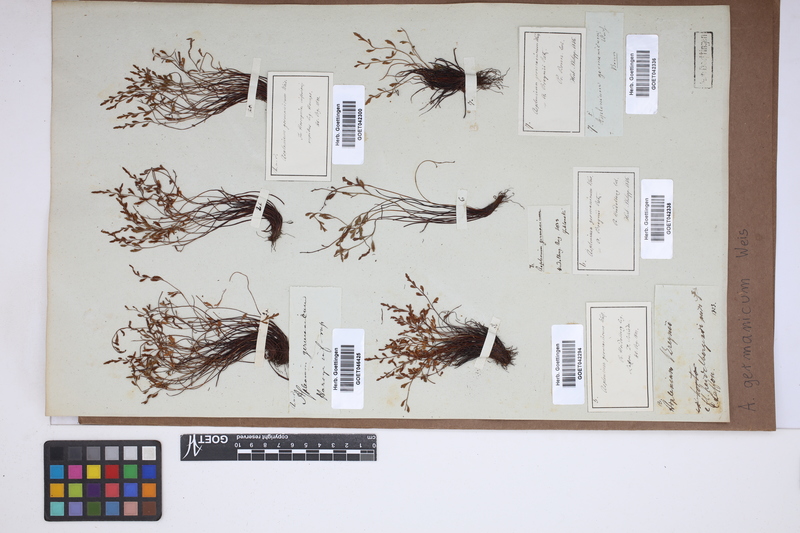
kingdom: Plantae
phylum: Tracheophyta
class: Polypodiopsida
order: Polypodiales
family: Aspleniaceae
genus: Asplenium
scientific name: Asplenium
